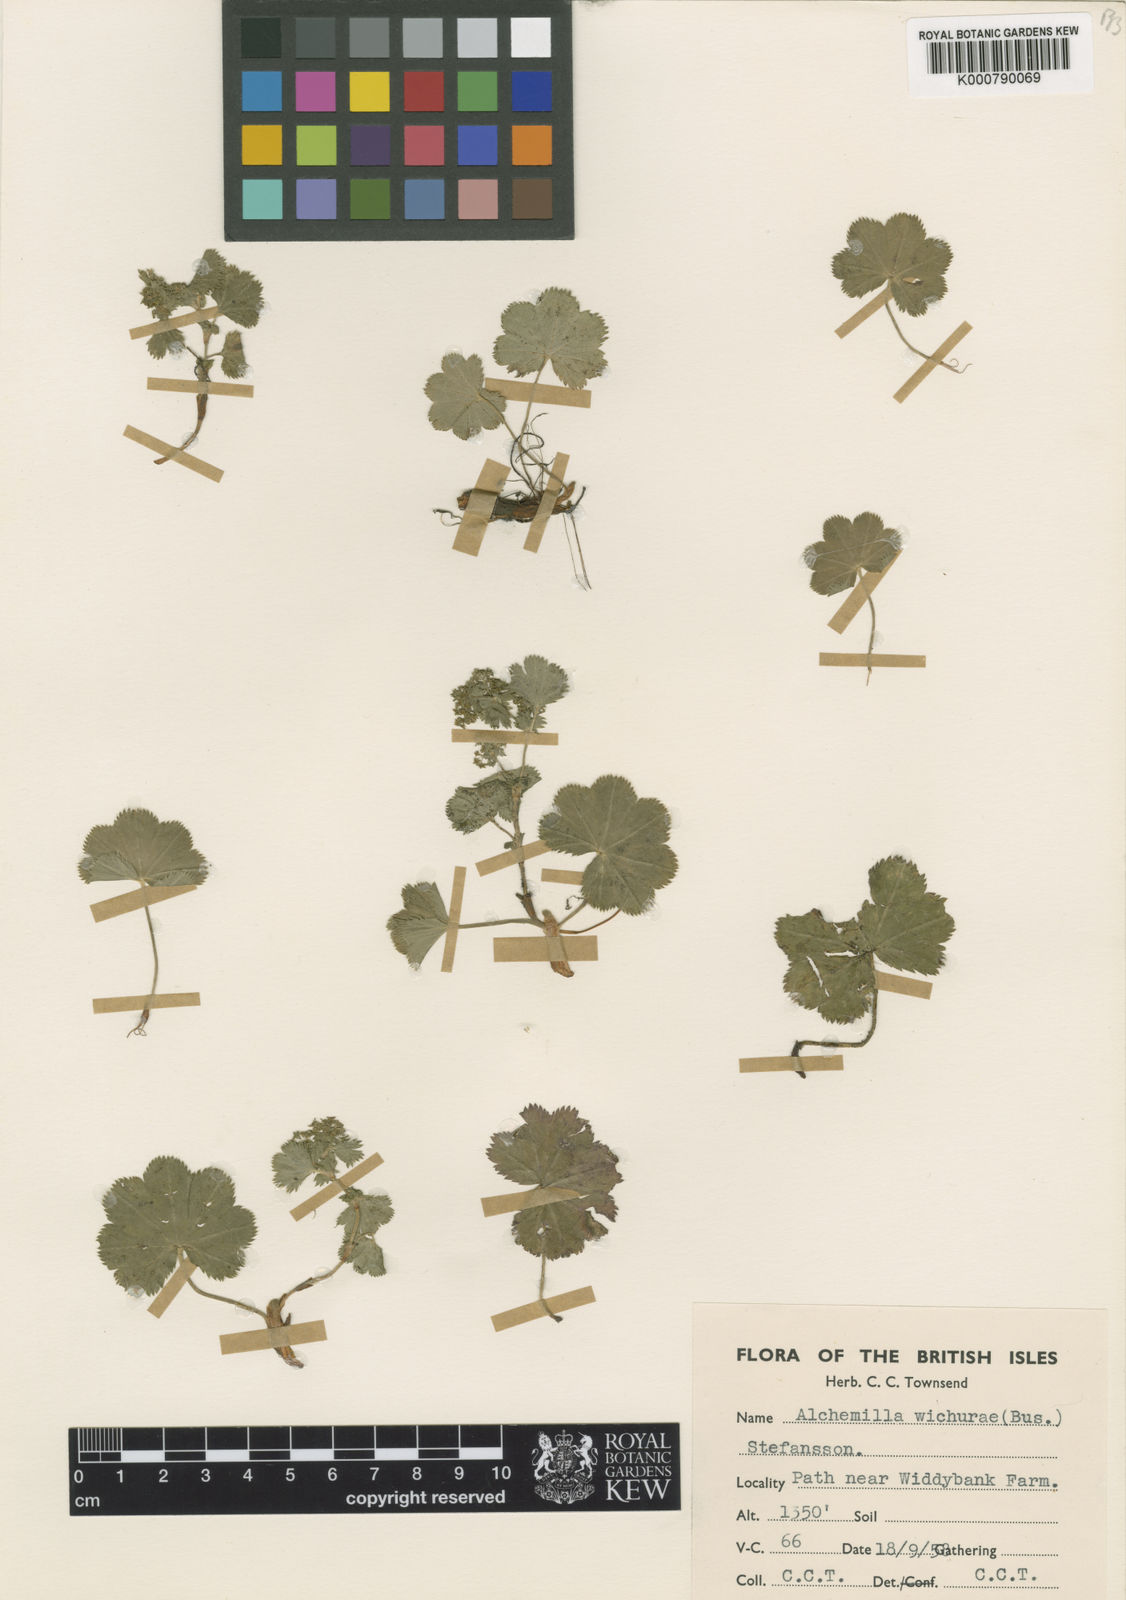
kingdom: Plantae
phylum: Tracheophyta
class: Magnoliopsida
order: Rosales
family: Rosaceae
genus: Alchemilla
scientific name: Alchemilla wichurae
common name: Rock lady's mantle
